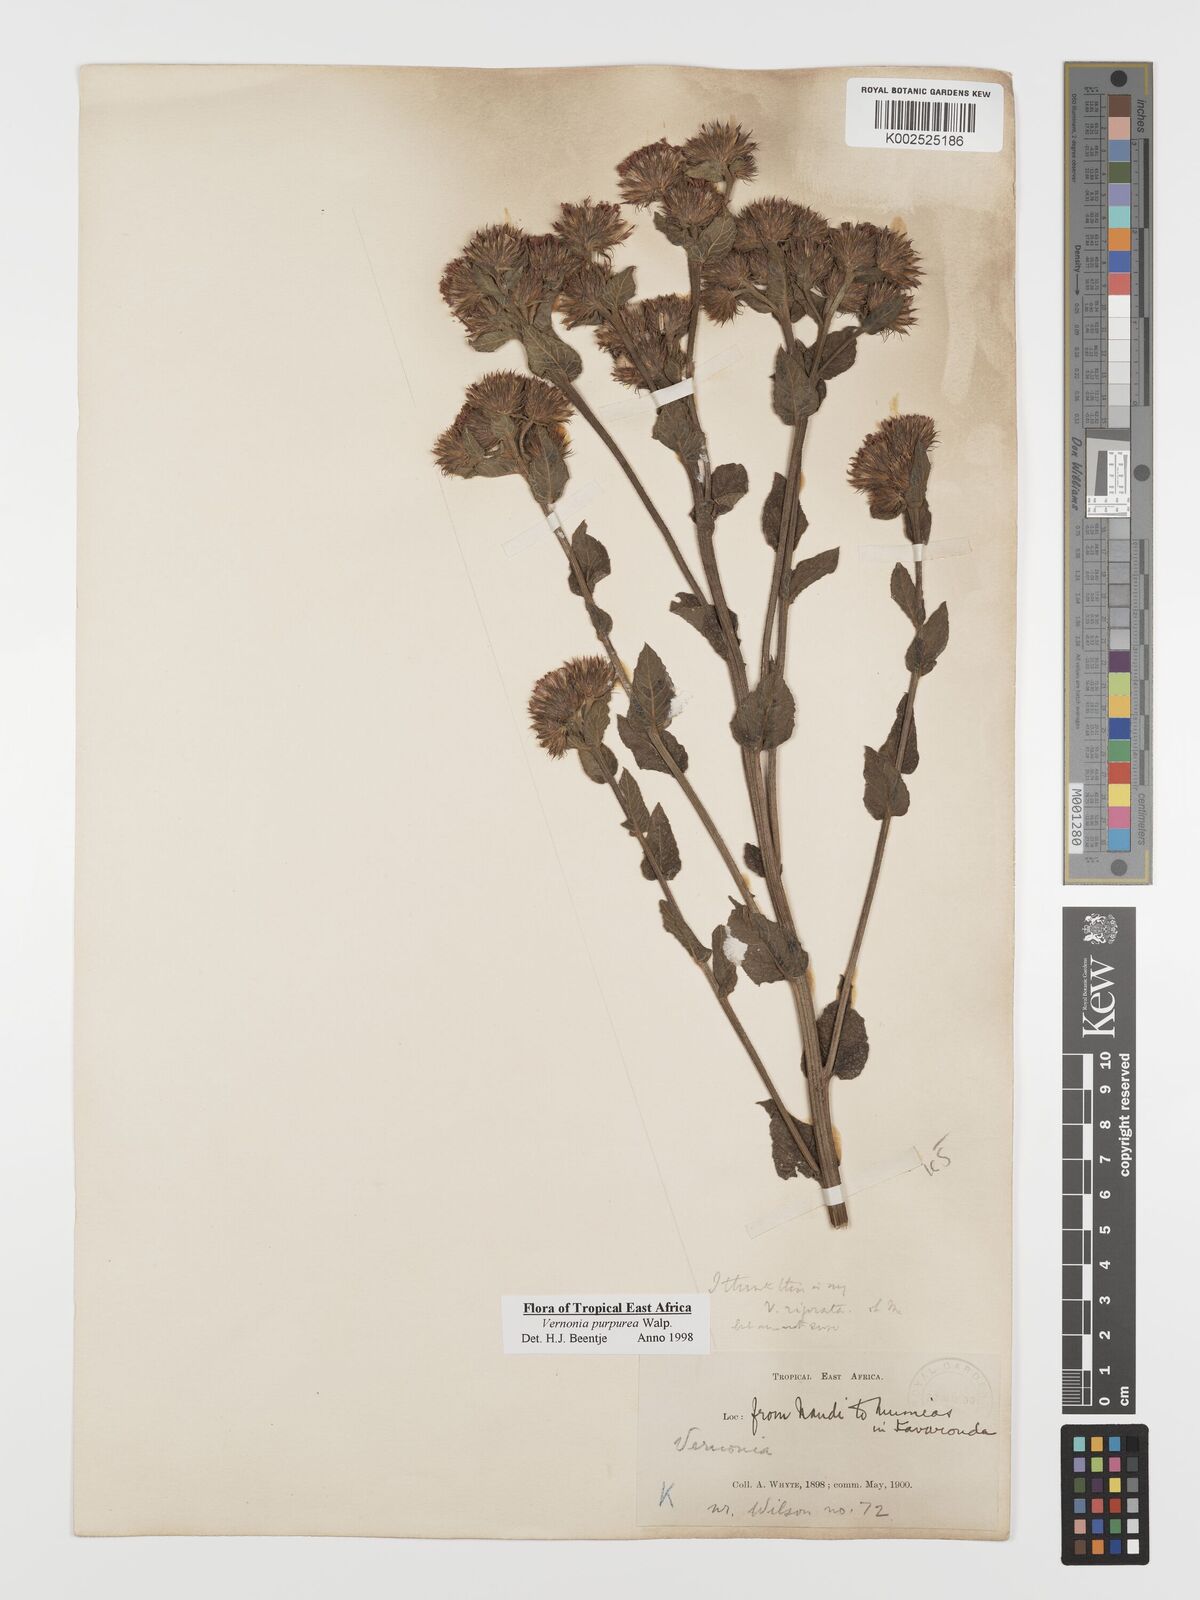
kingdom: Plantae
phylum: Tracheophyta
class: Magnoliopsida
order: Asterales
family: Asteraceae
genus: Nothovernonia
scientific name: Nothovernonia purpurea
